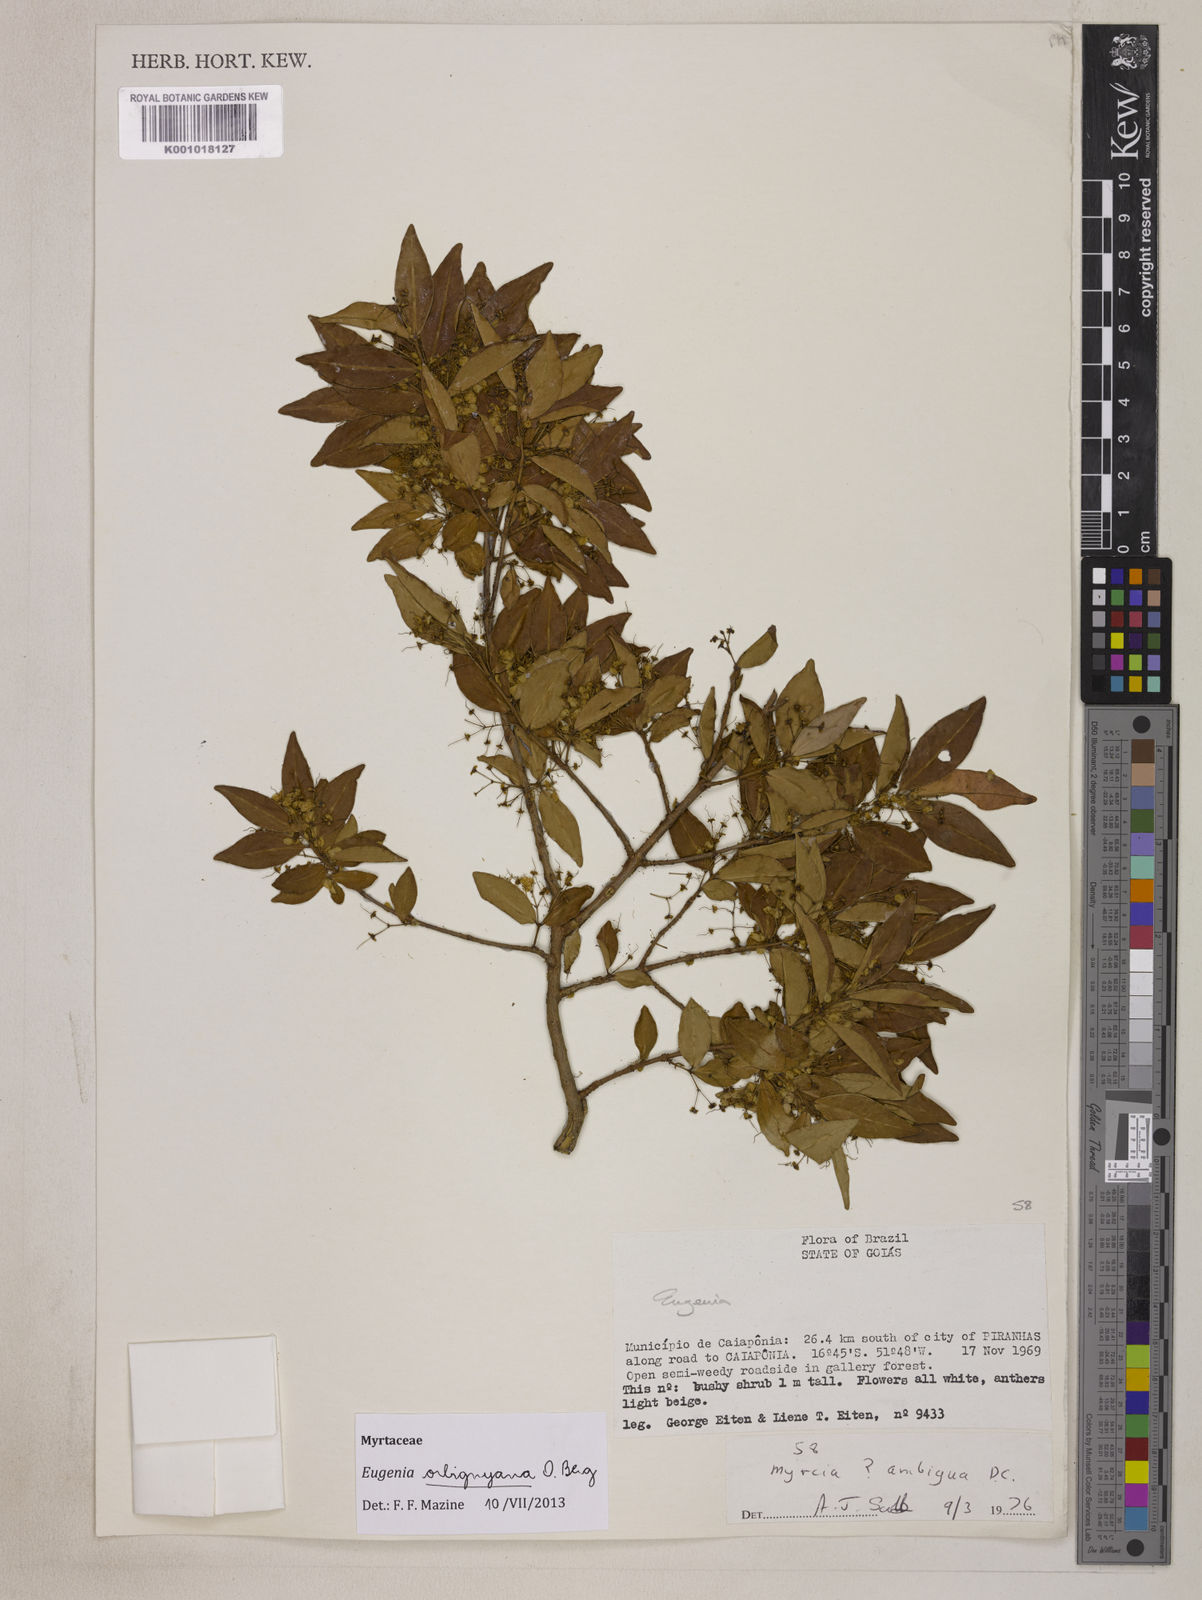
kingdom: Plantae
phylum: Tracheophyta
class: Magnoliopsida
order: Myrtales
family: Myrtaceae
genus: Eugenia
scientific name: Eugenia orbignyana
